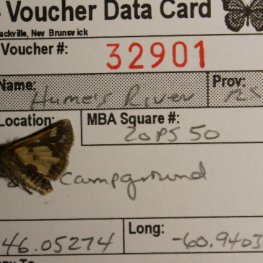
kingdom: Animalia
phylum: Arthropoda
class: Insecta
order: Lepidoptera
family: Hesperiidae
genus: Polites
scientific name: Polites coras
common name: Peck's Skipper
